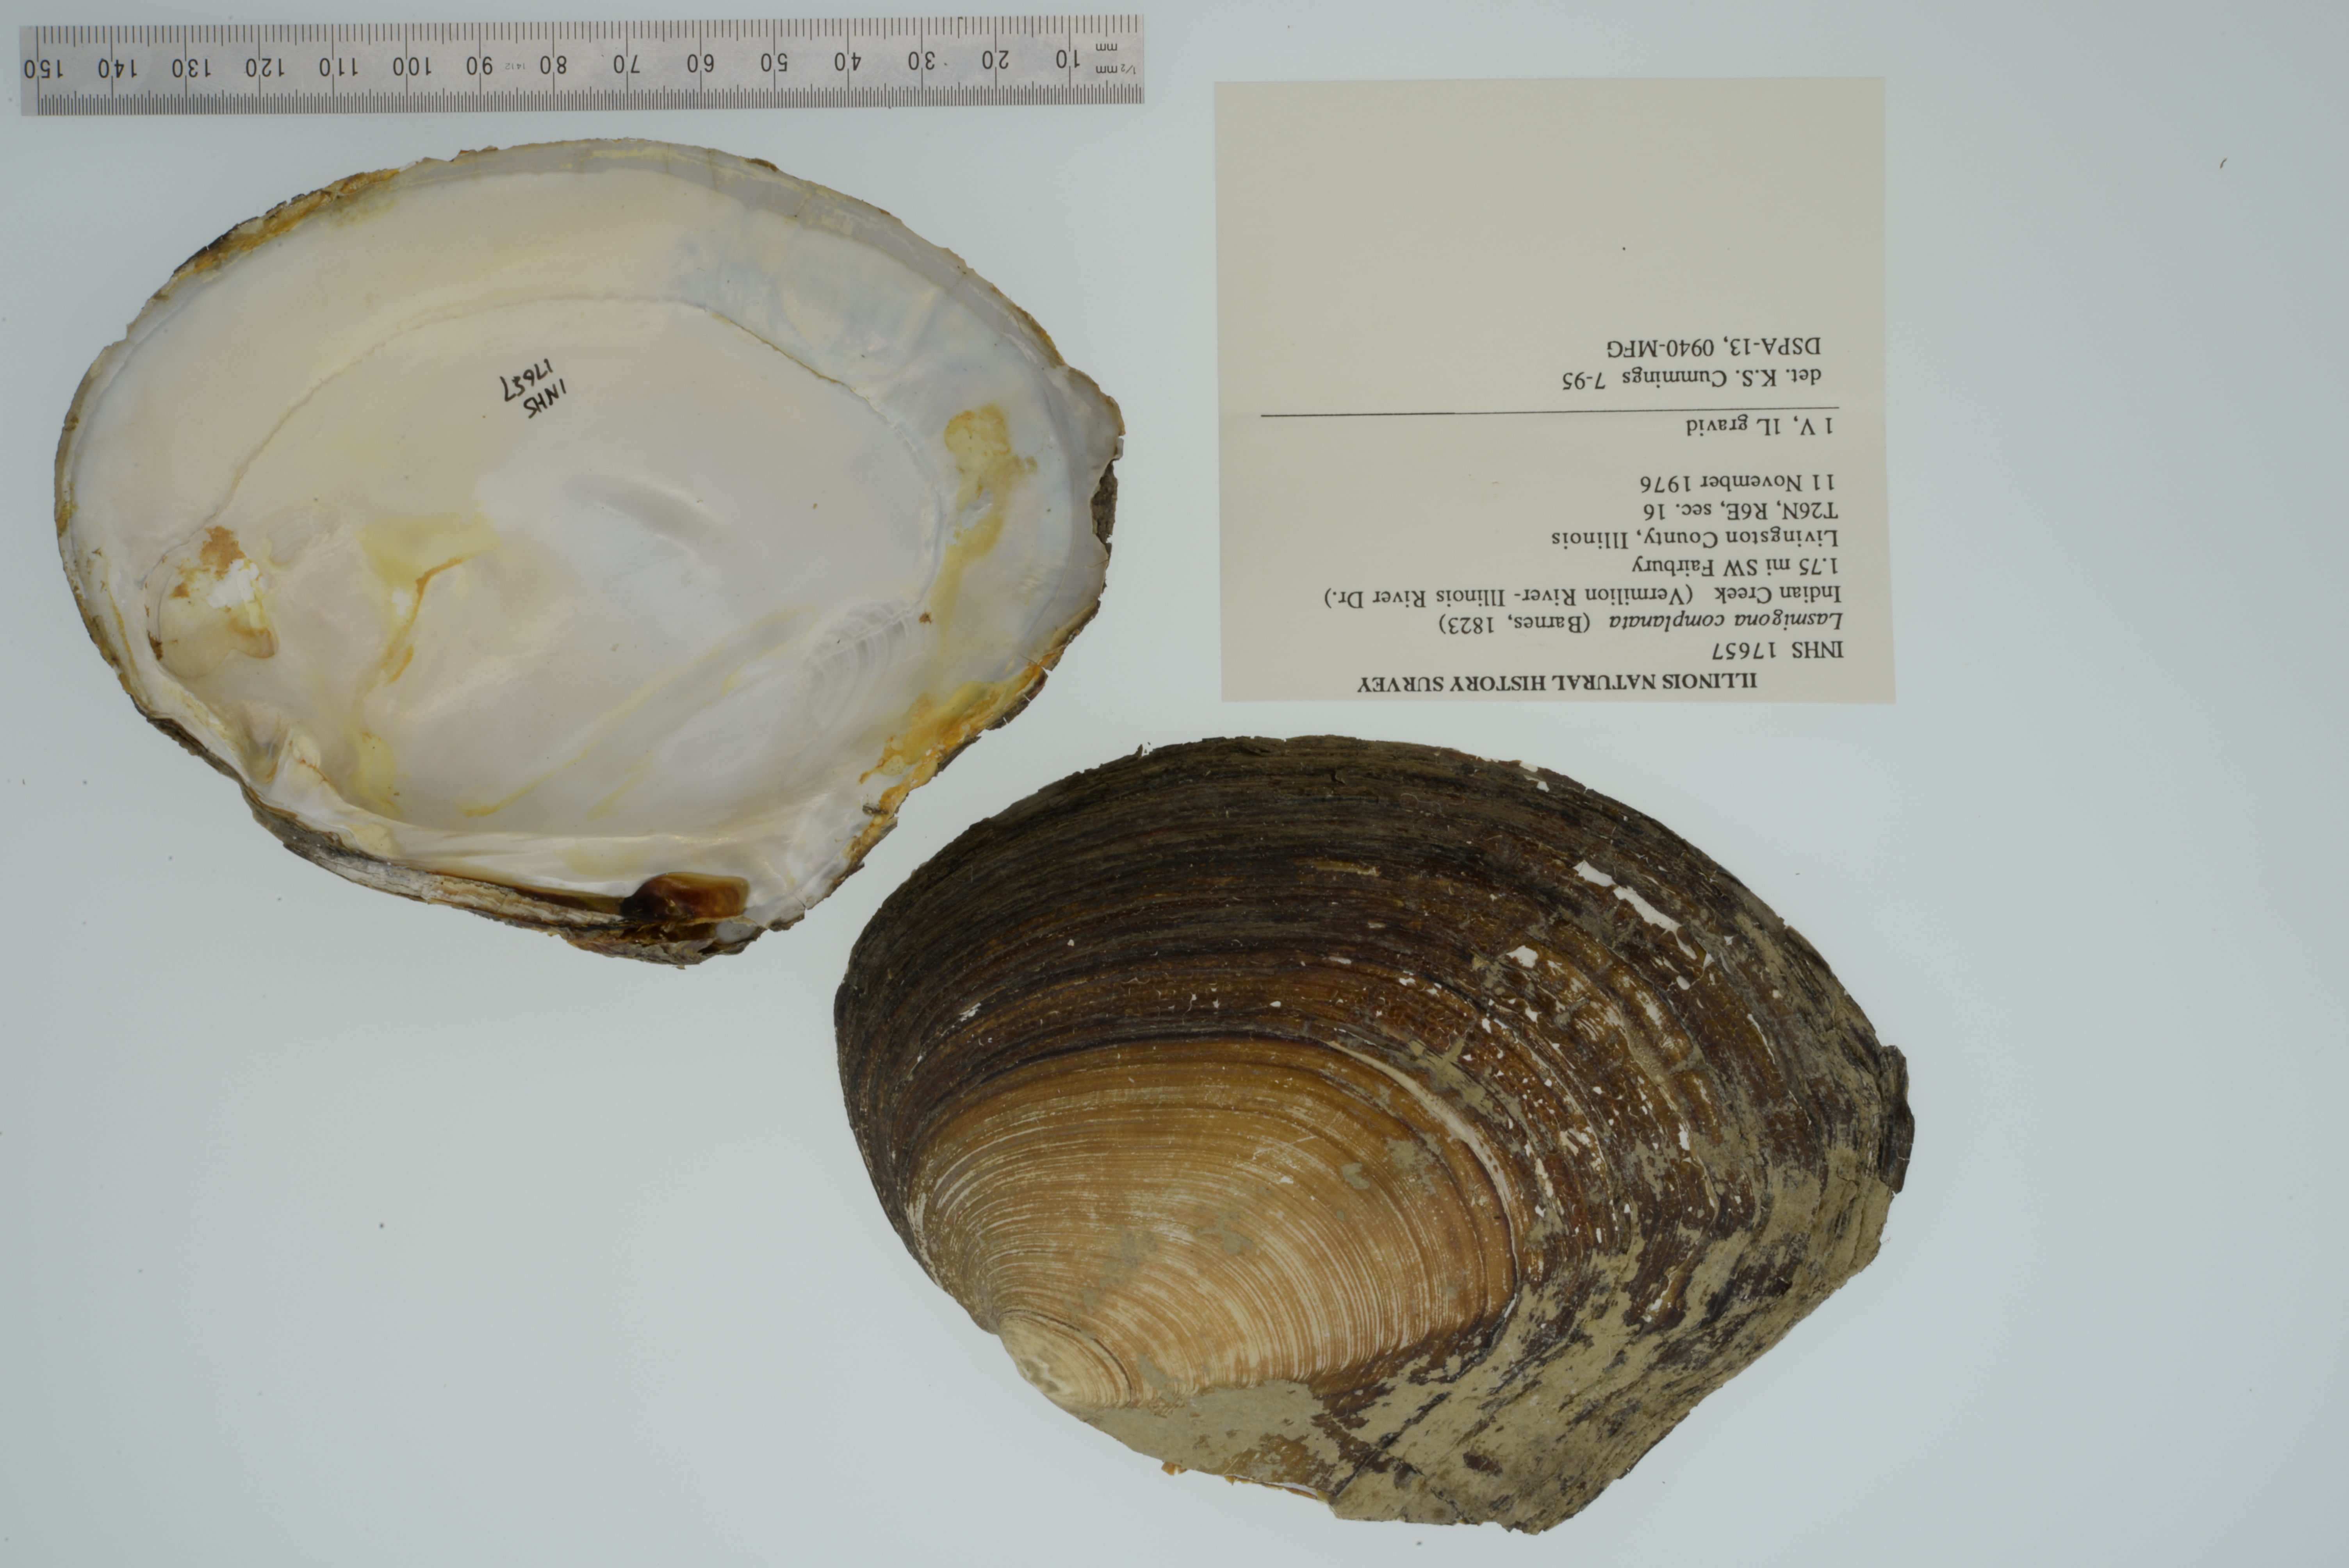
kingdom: Animalia
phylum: Mollusca
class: Bivalvia
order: Unionida
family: Unionidae
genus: Lasmigona
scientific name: Lasmigona complanata
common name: White heelsplitter
